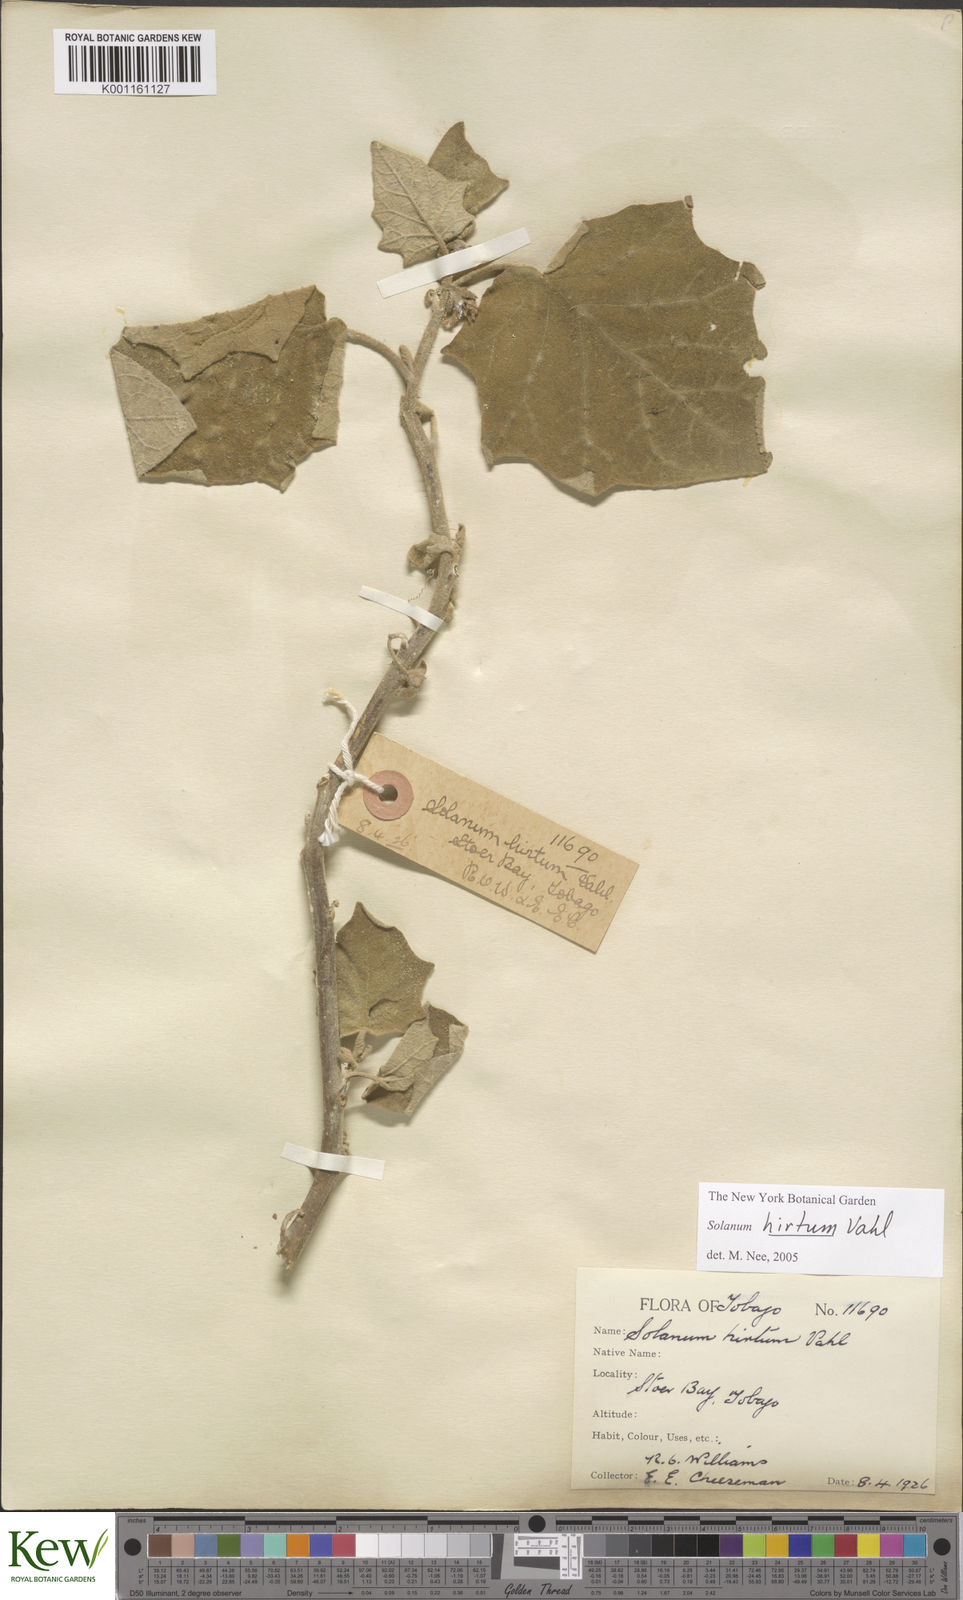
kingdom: Plantae
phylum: Tracheophyta
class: Magnoliopsida
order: Solanales
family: Solanaceae
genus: Solanum
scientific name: Solanum hirtum
